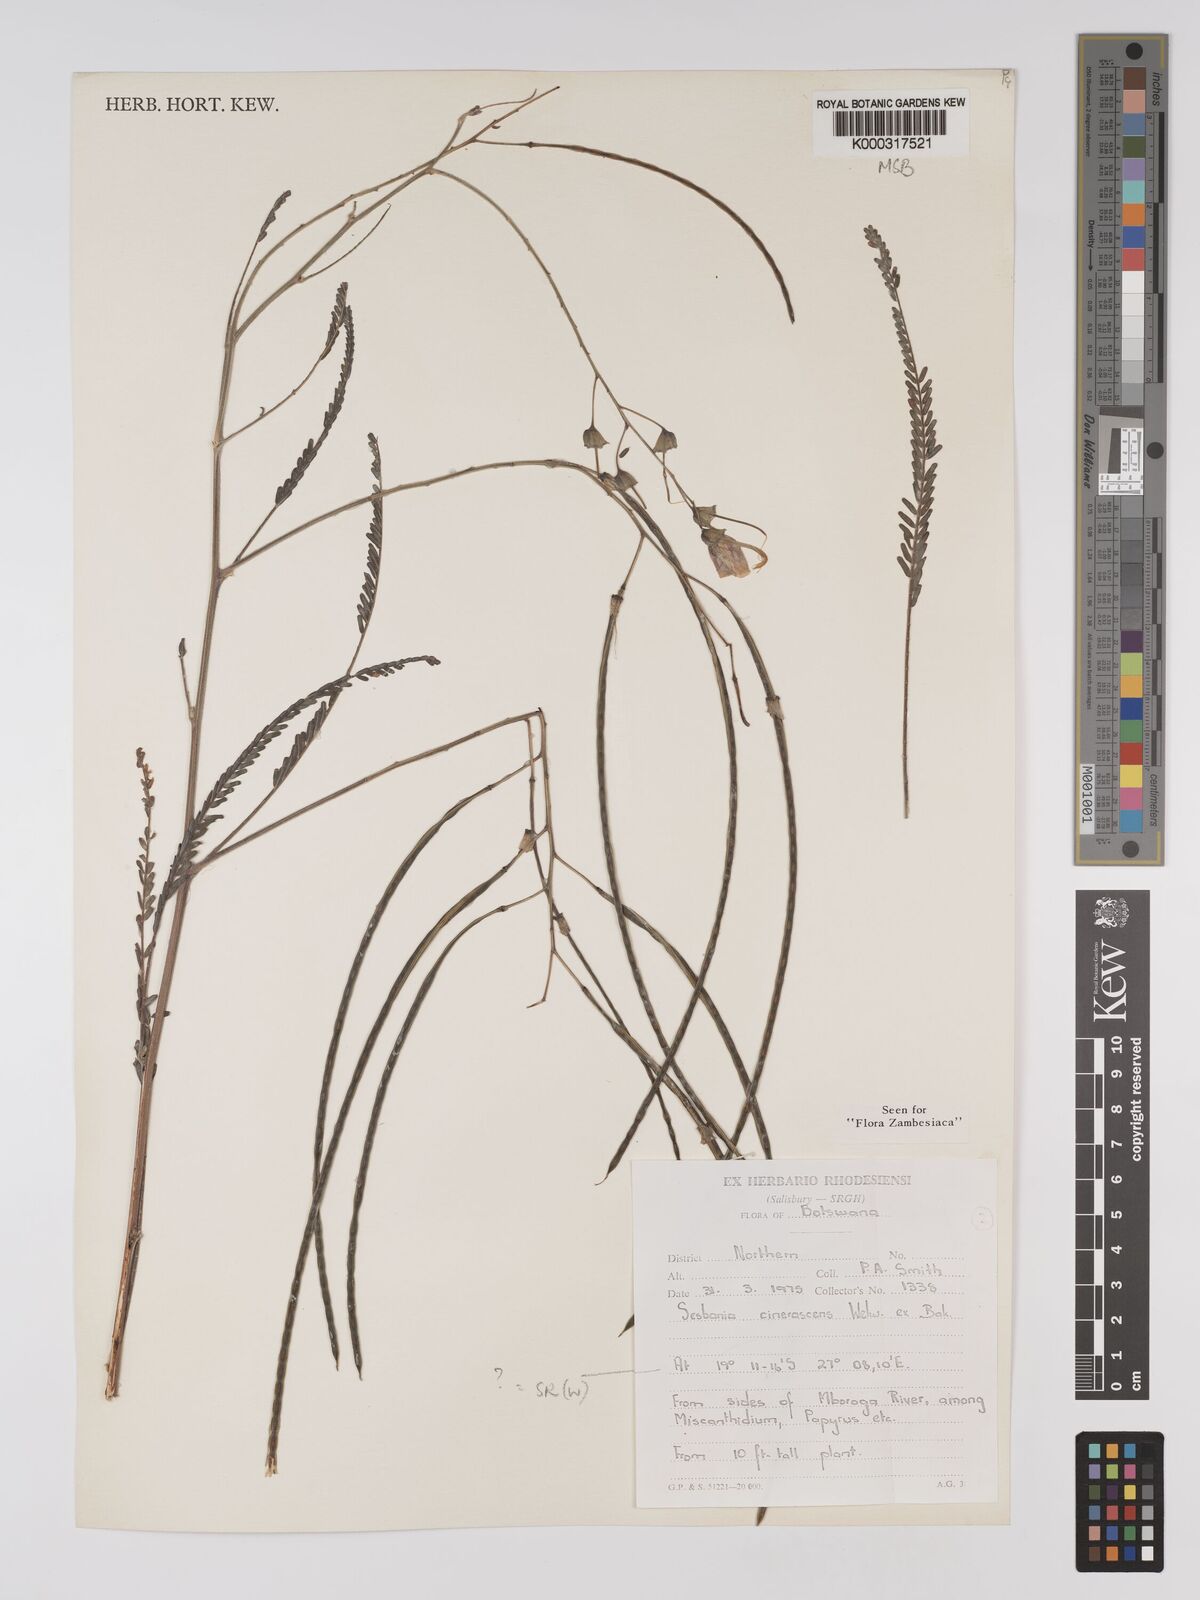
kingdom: Plantae
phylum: Tracheophyta
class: Magnoliopsida
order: Fabales
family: Fabaceae
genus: Sesbania
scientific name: Sesbania cinerascens
